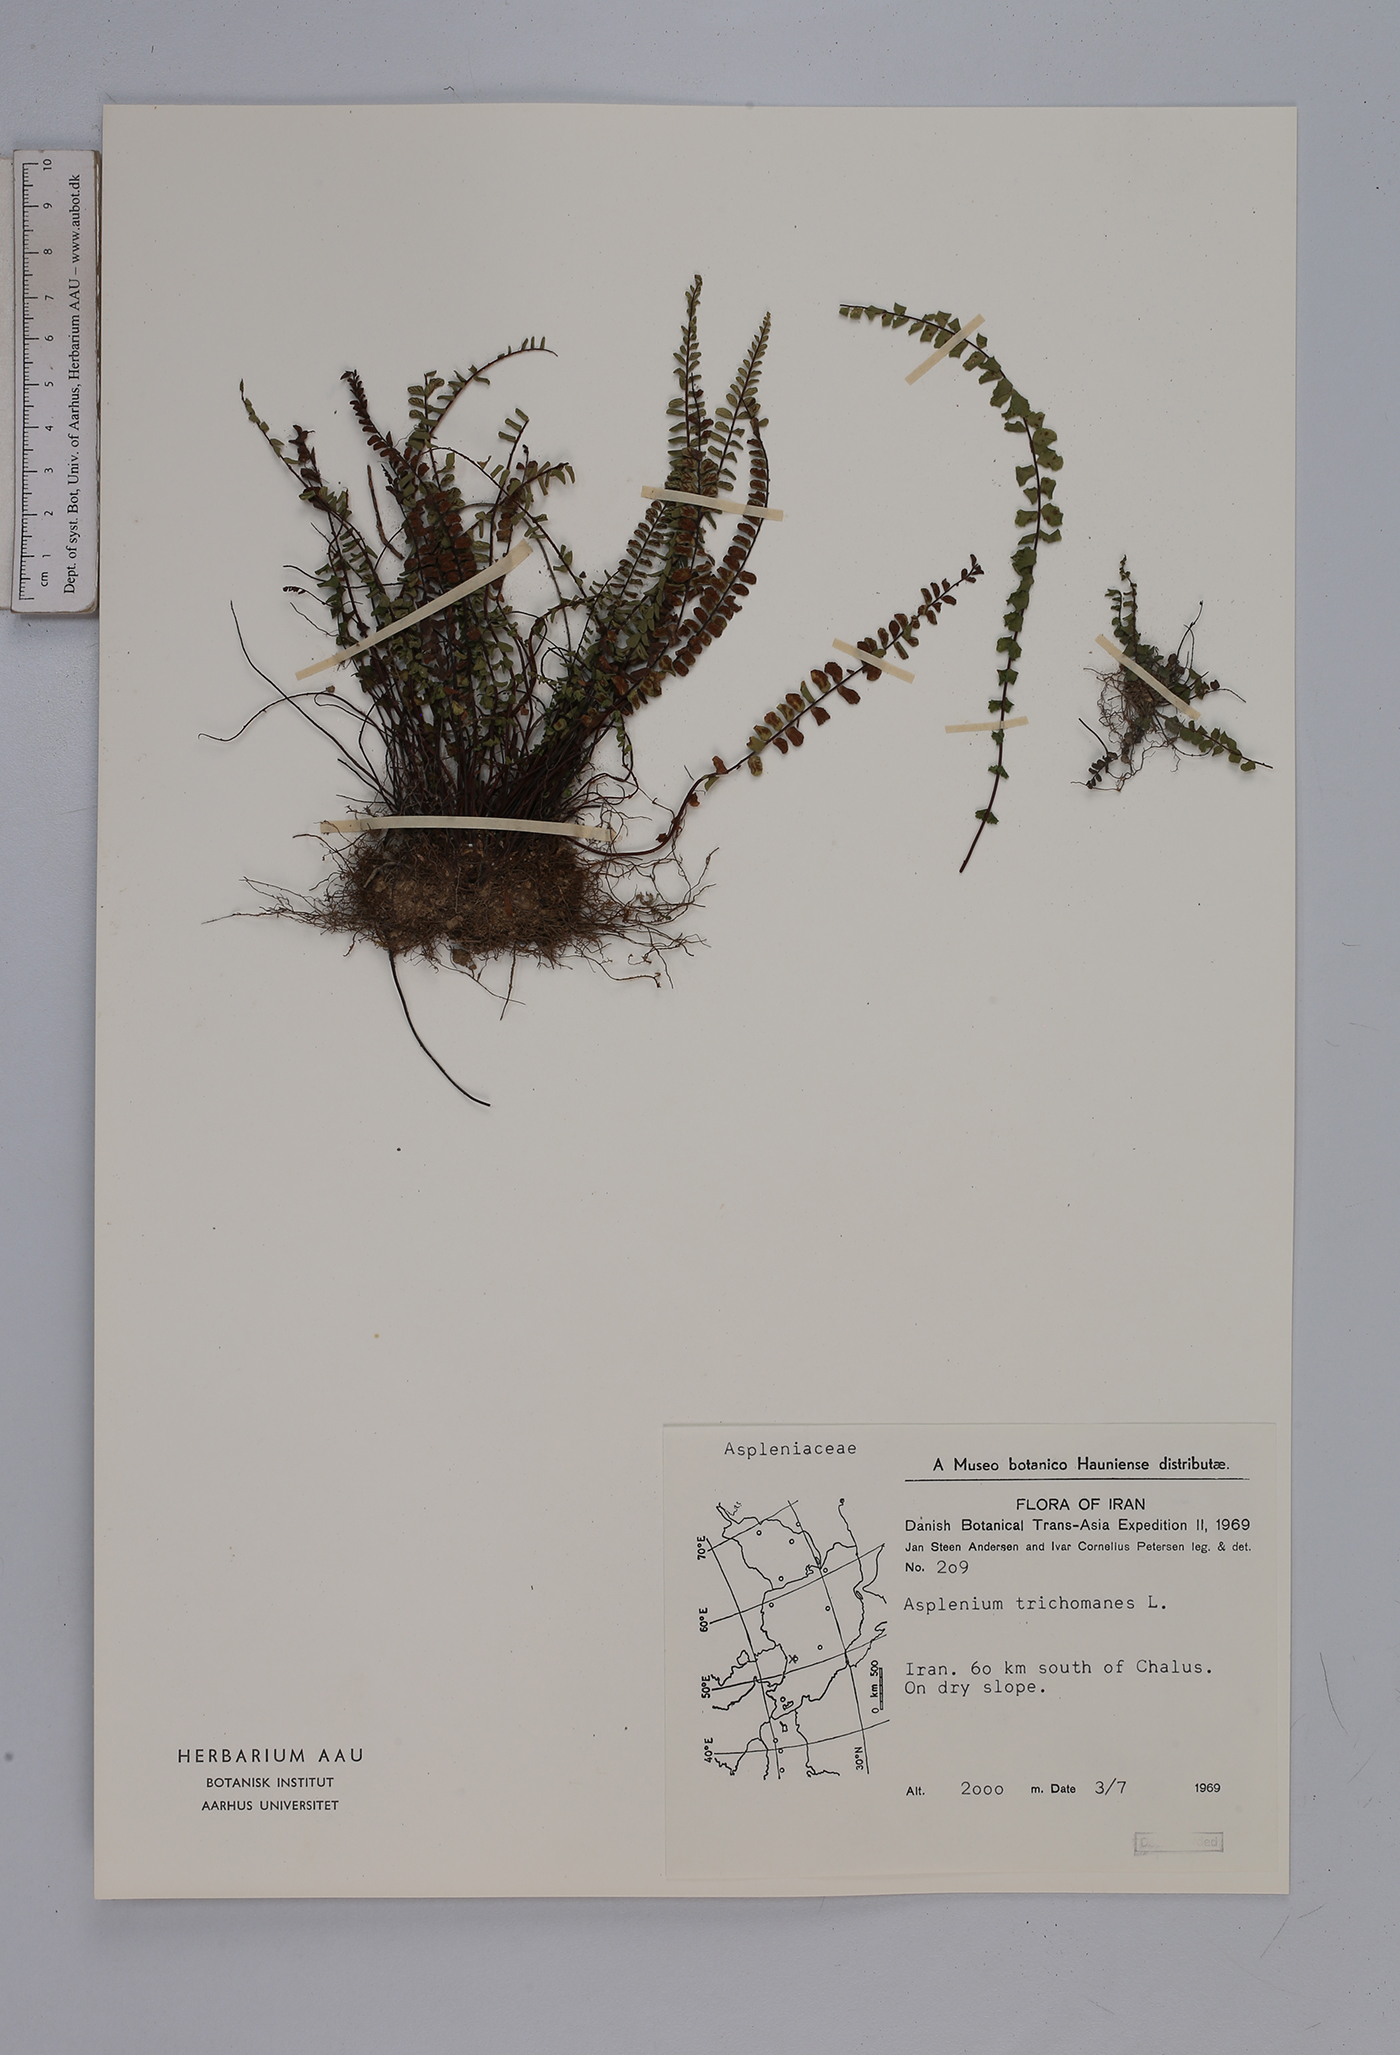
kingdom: Plantae
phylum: Tracheophyta
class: Polypodiopsida
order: Polypodiales
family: Aspleniaceae
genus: Asplenium
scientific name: Asplenium trichomanes
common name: Maidenhair spleenwort
